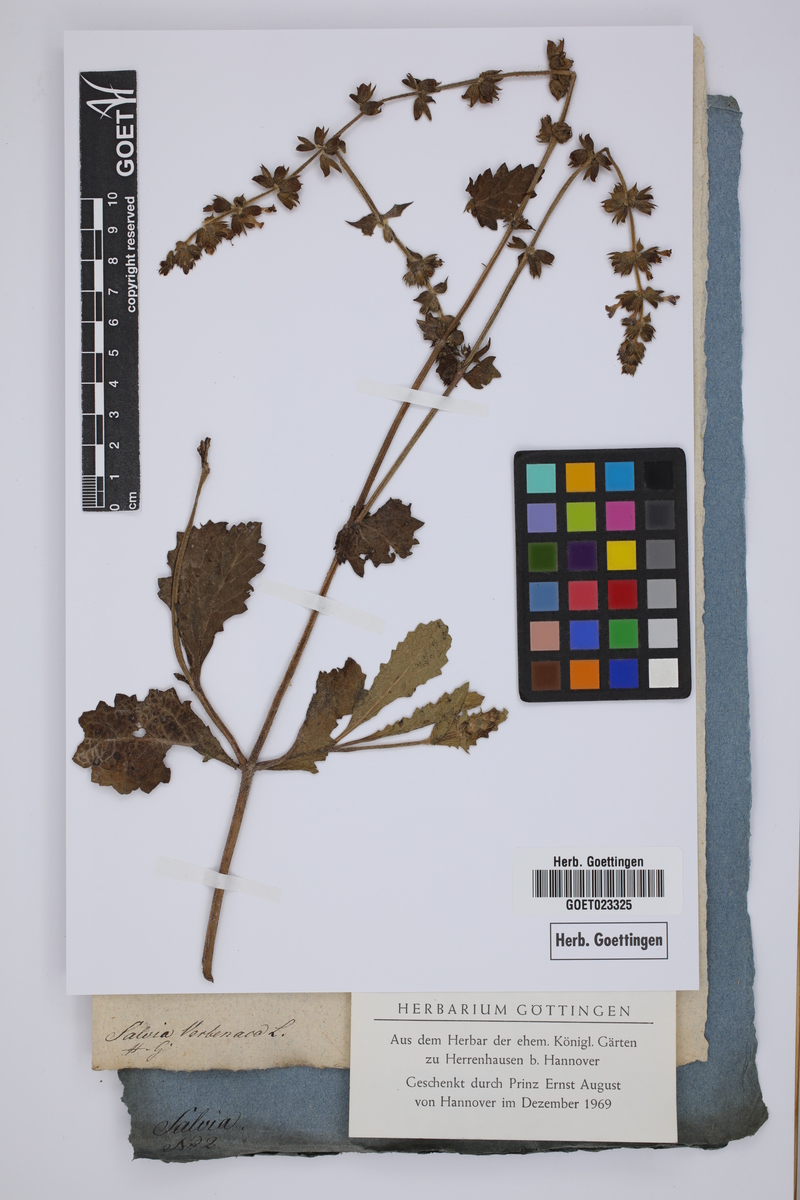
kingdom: Plantae
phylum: Tracheophyta
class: Magnoliopsida
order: Lamiales
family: Lamiaceae
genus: Salvia
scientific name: Salvia verbenaca
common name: Wild clary
